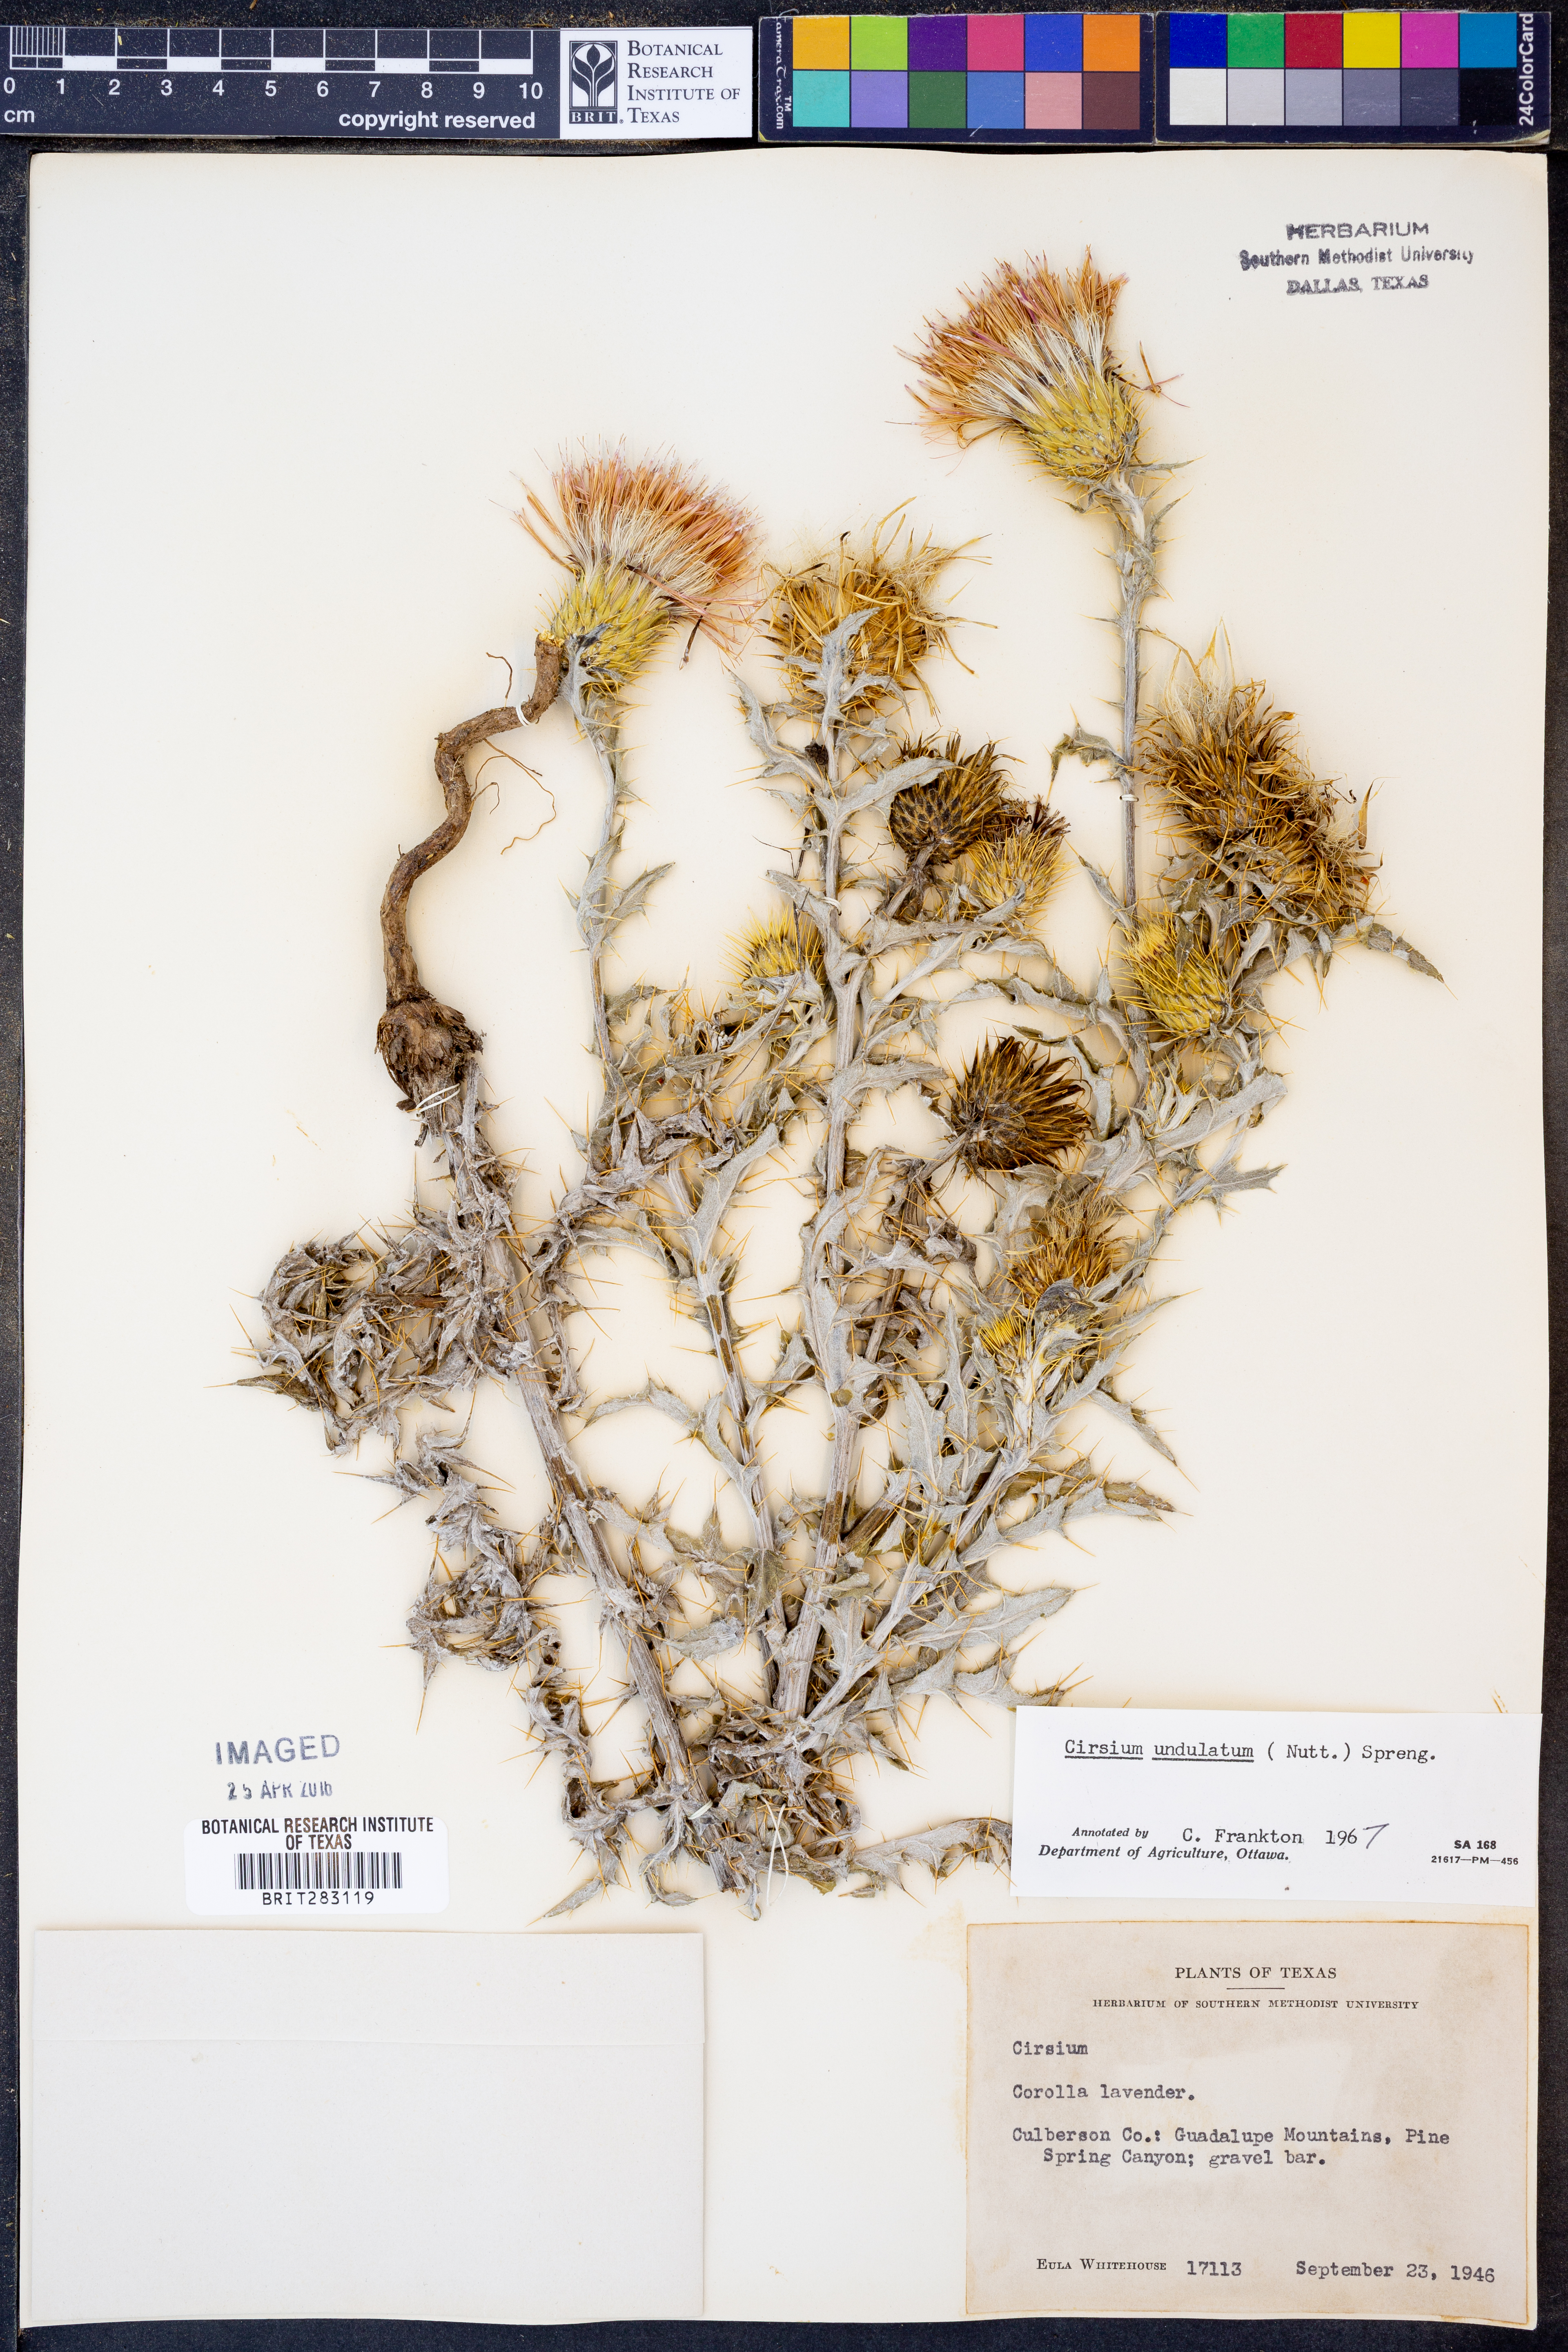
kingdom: Plantae
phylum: Tracheophyta
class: Magnoliopsida
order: Asterales
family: Asteraceae
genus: Cirsium
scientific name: Cirsium undulatum
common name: Pasture thistle
